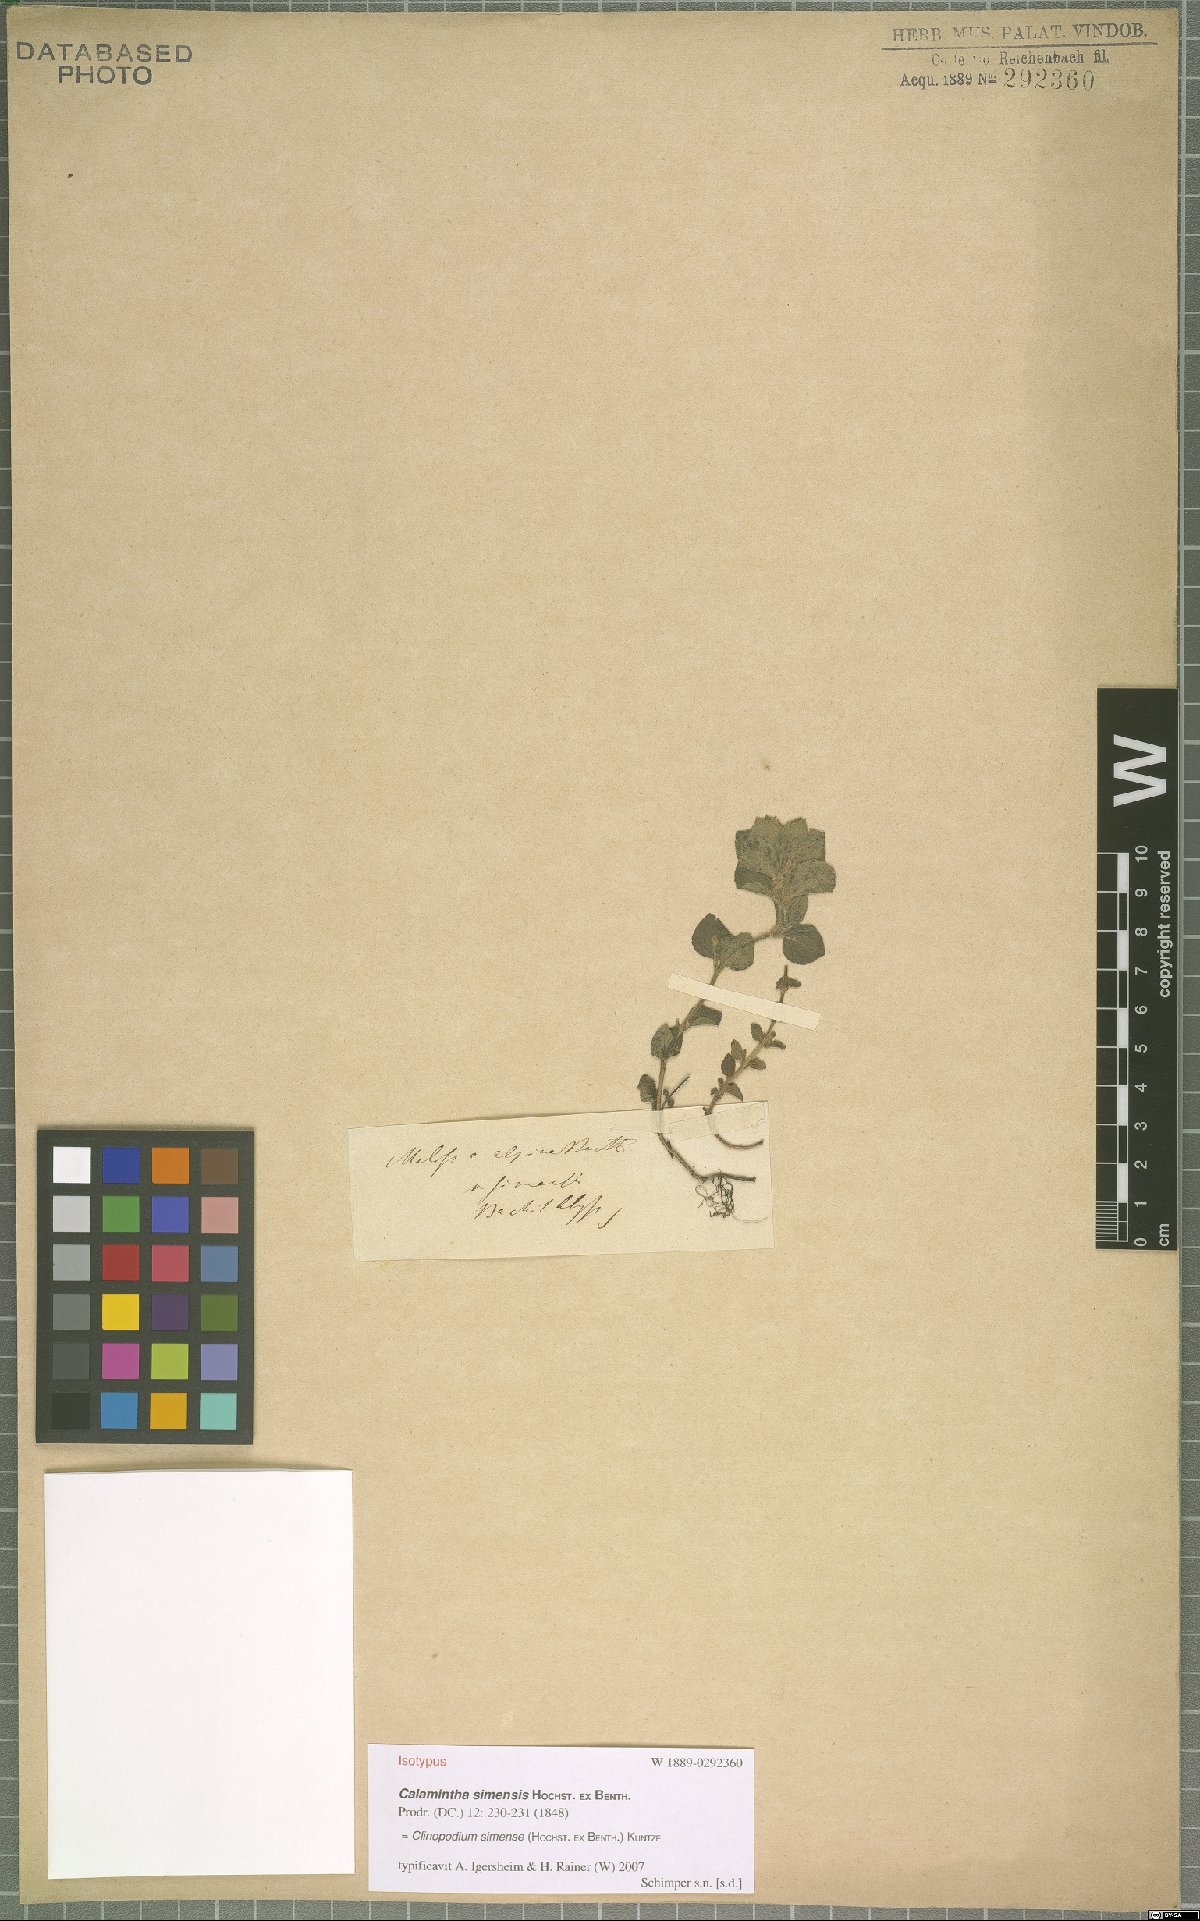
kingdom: Plantae
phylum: Tracheophyta
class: Magnoliopsida
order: Lamiales
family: Lamiaceae
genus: Clinopodium
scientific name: Clinopodium simense
